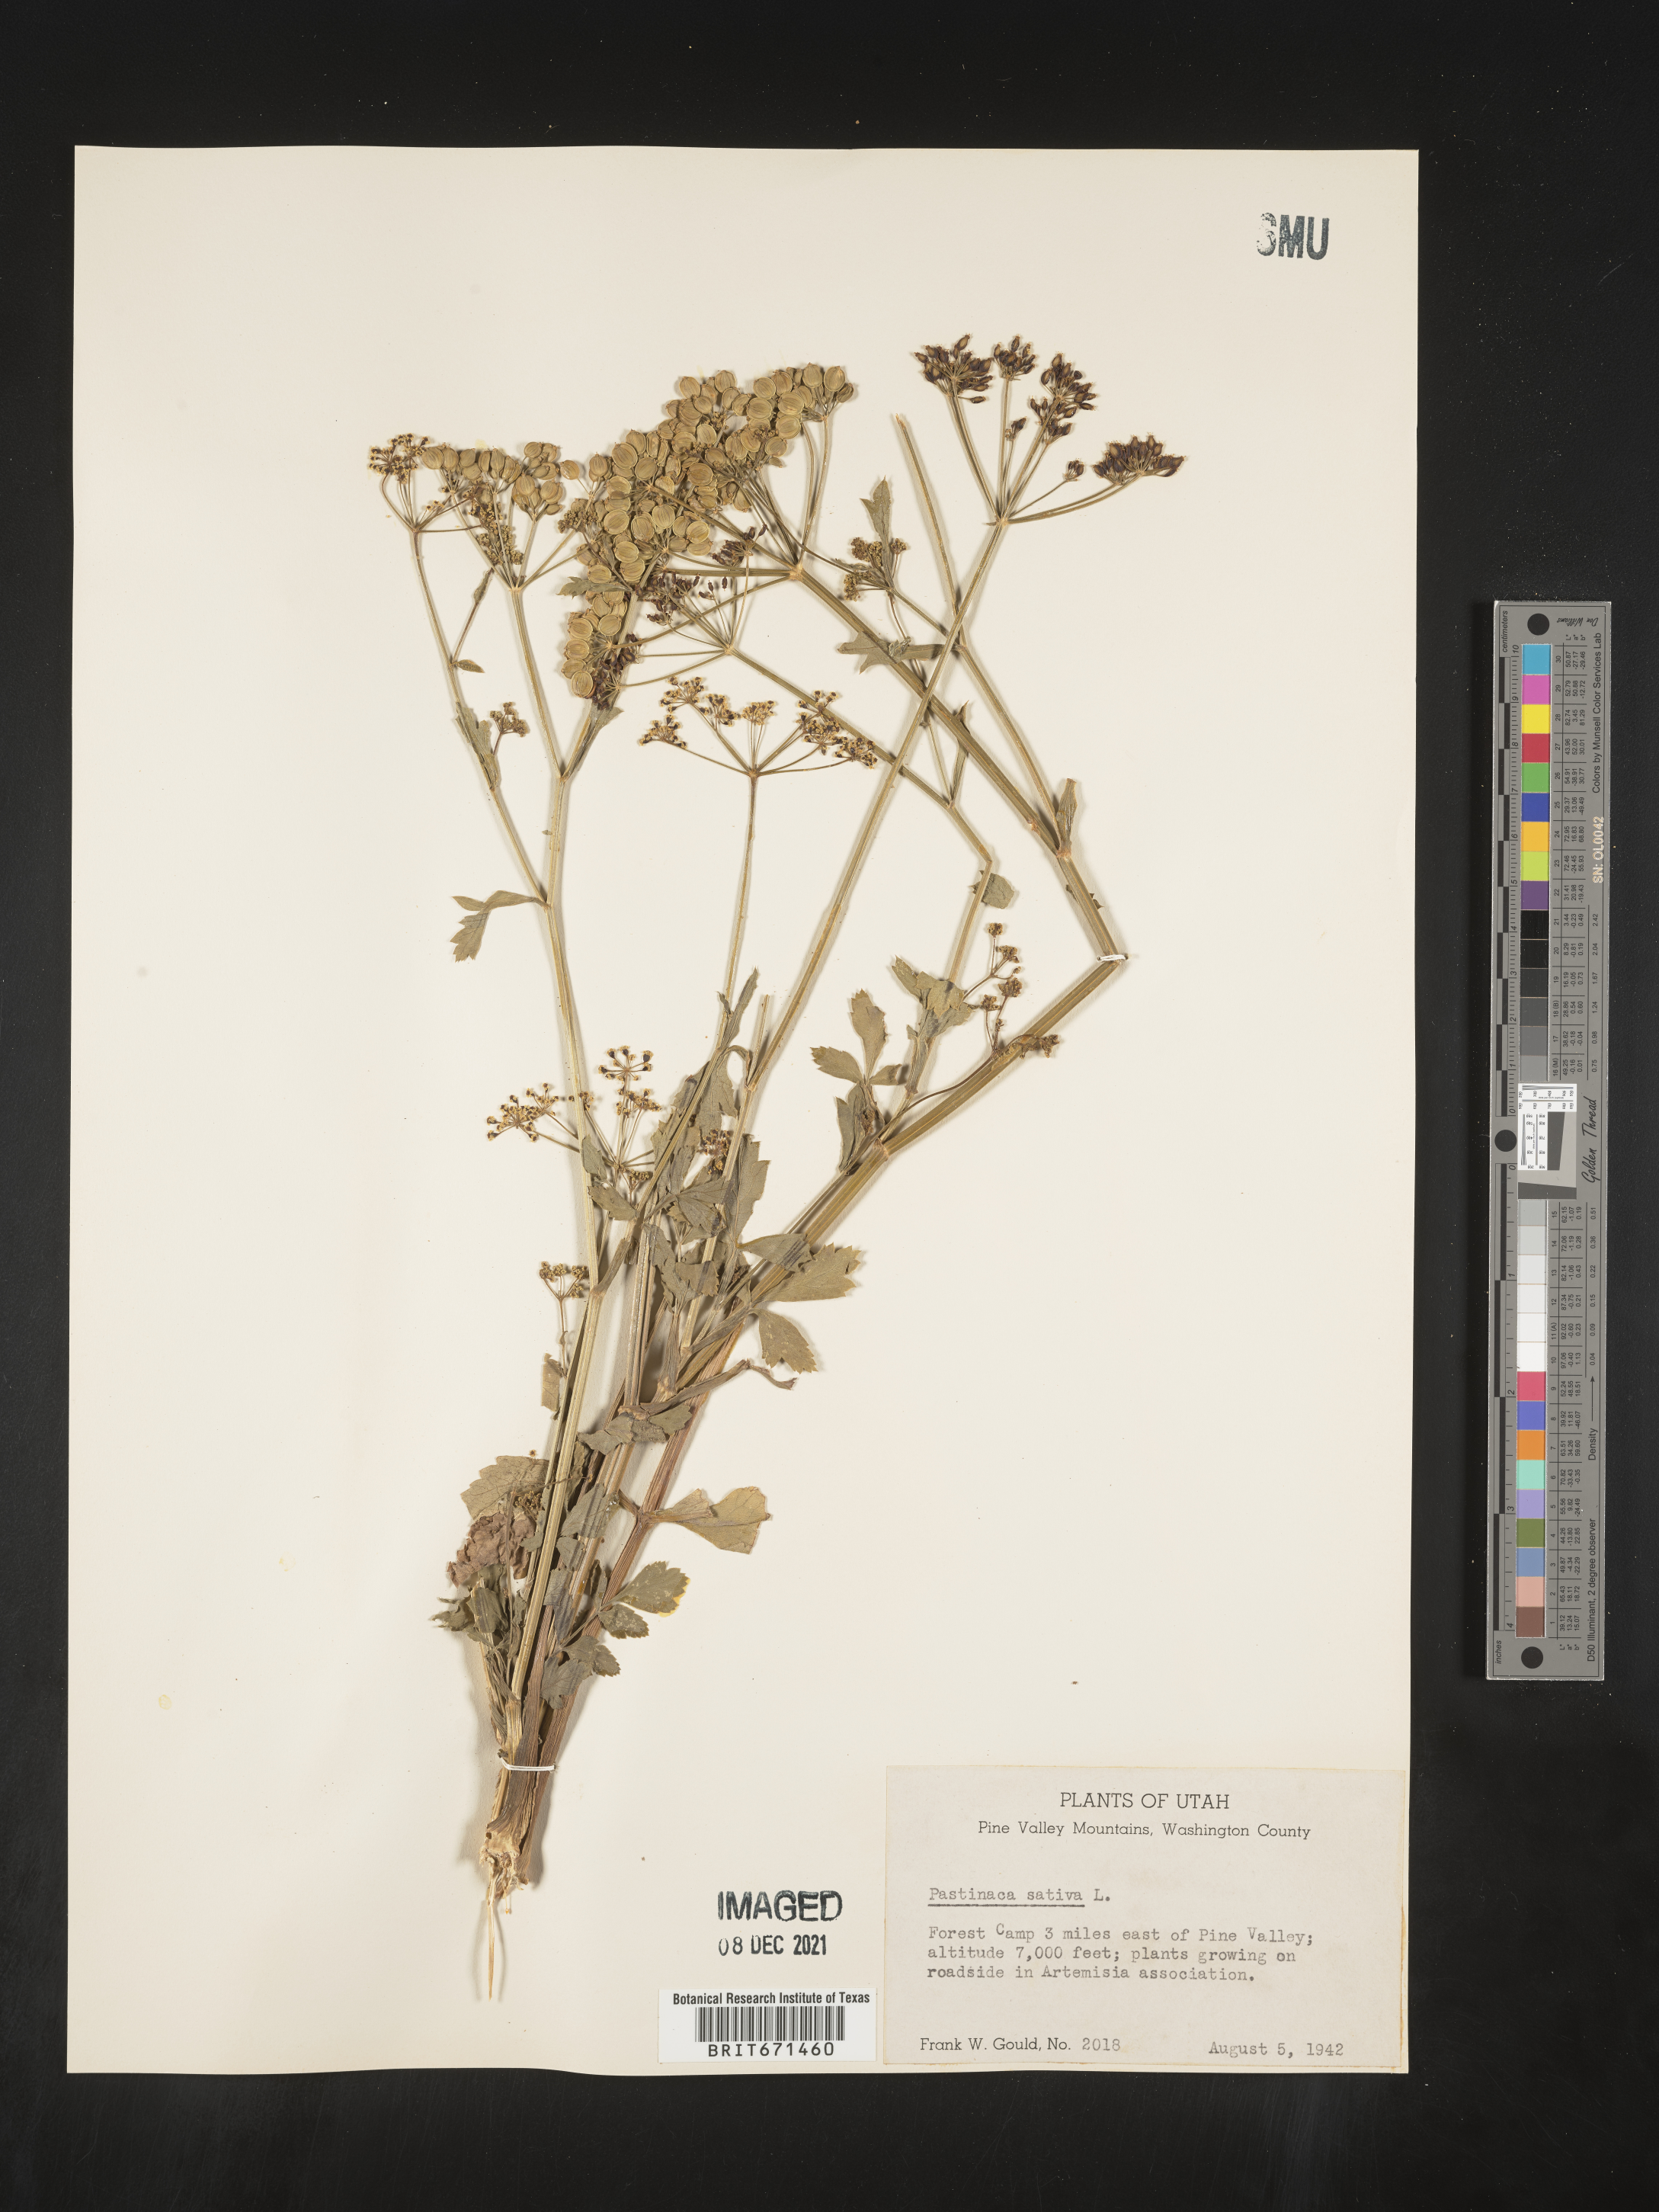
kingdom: Plantae
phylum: Tracheophyta
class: Magnoliopsida
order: Apiales
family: Apiaceae
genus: Pastinaca
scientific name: Pastinaca
